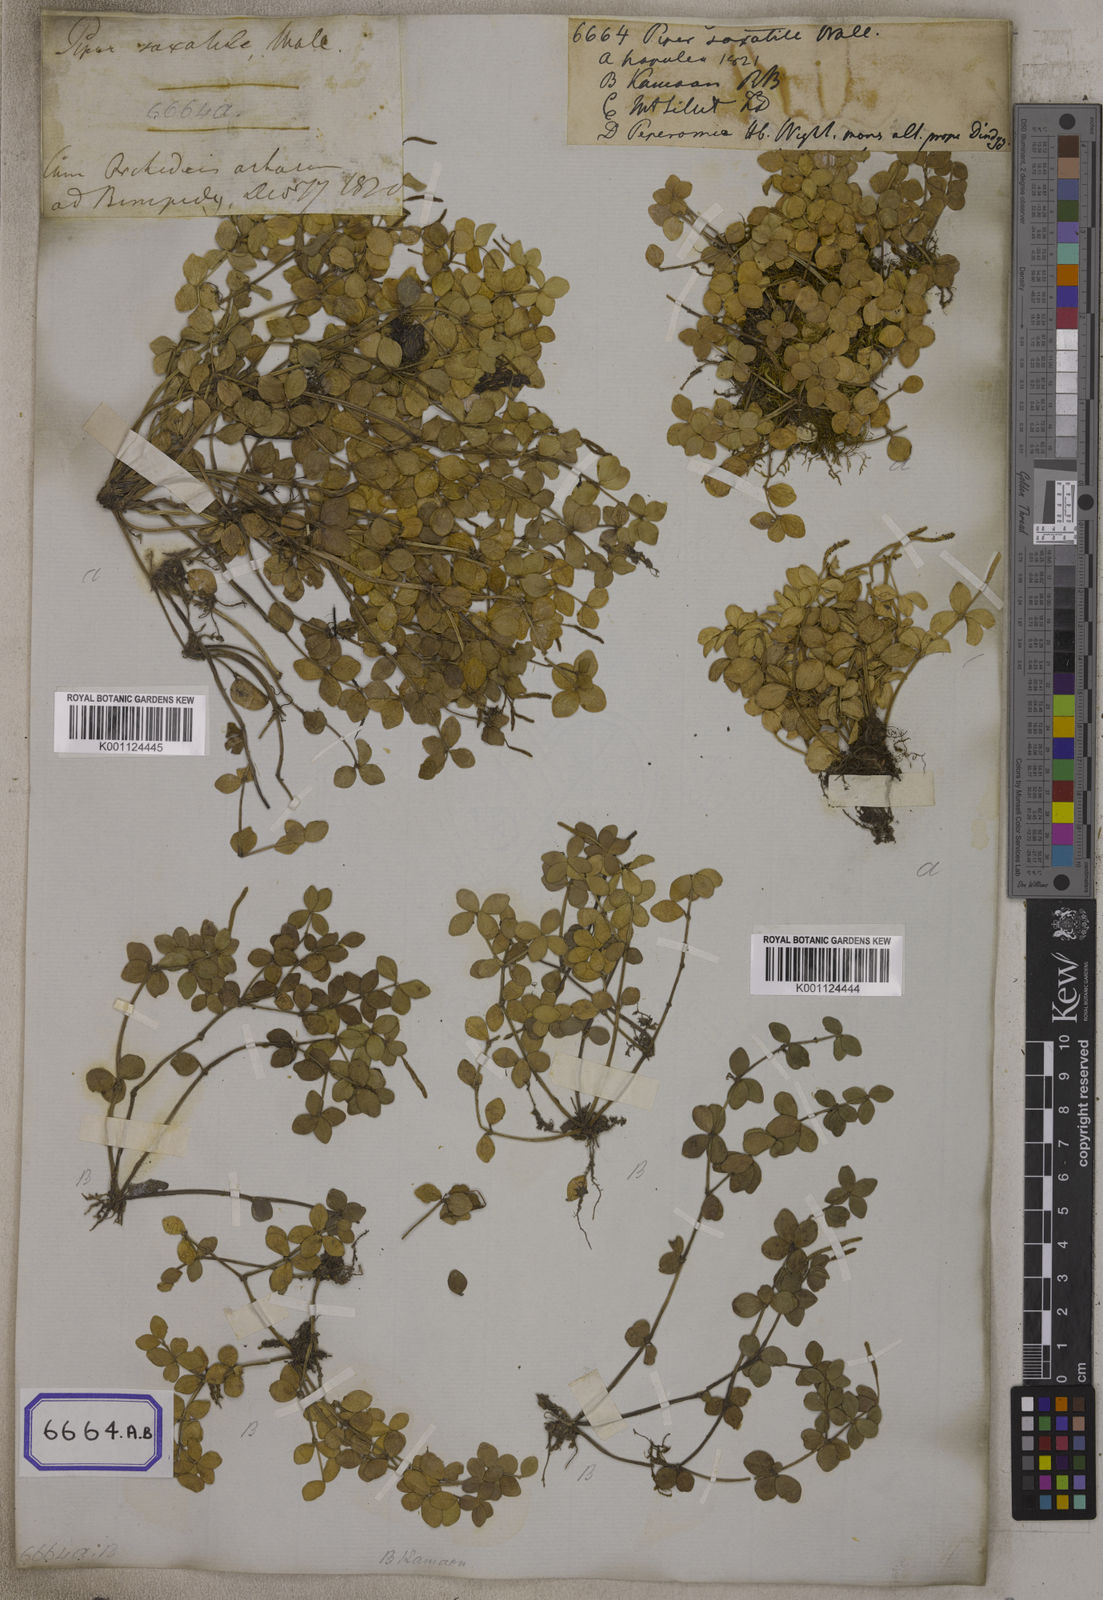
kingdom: Plantae
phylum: Tracheophyta
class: Magnoliopsida
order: Piperales
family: Piperaceae
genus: Peperomia
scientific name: Peperomia tetraphylla
